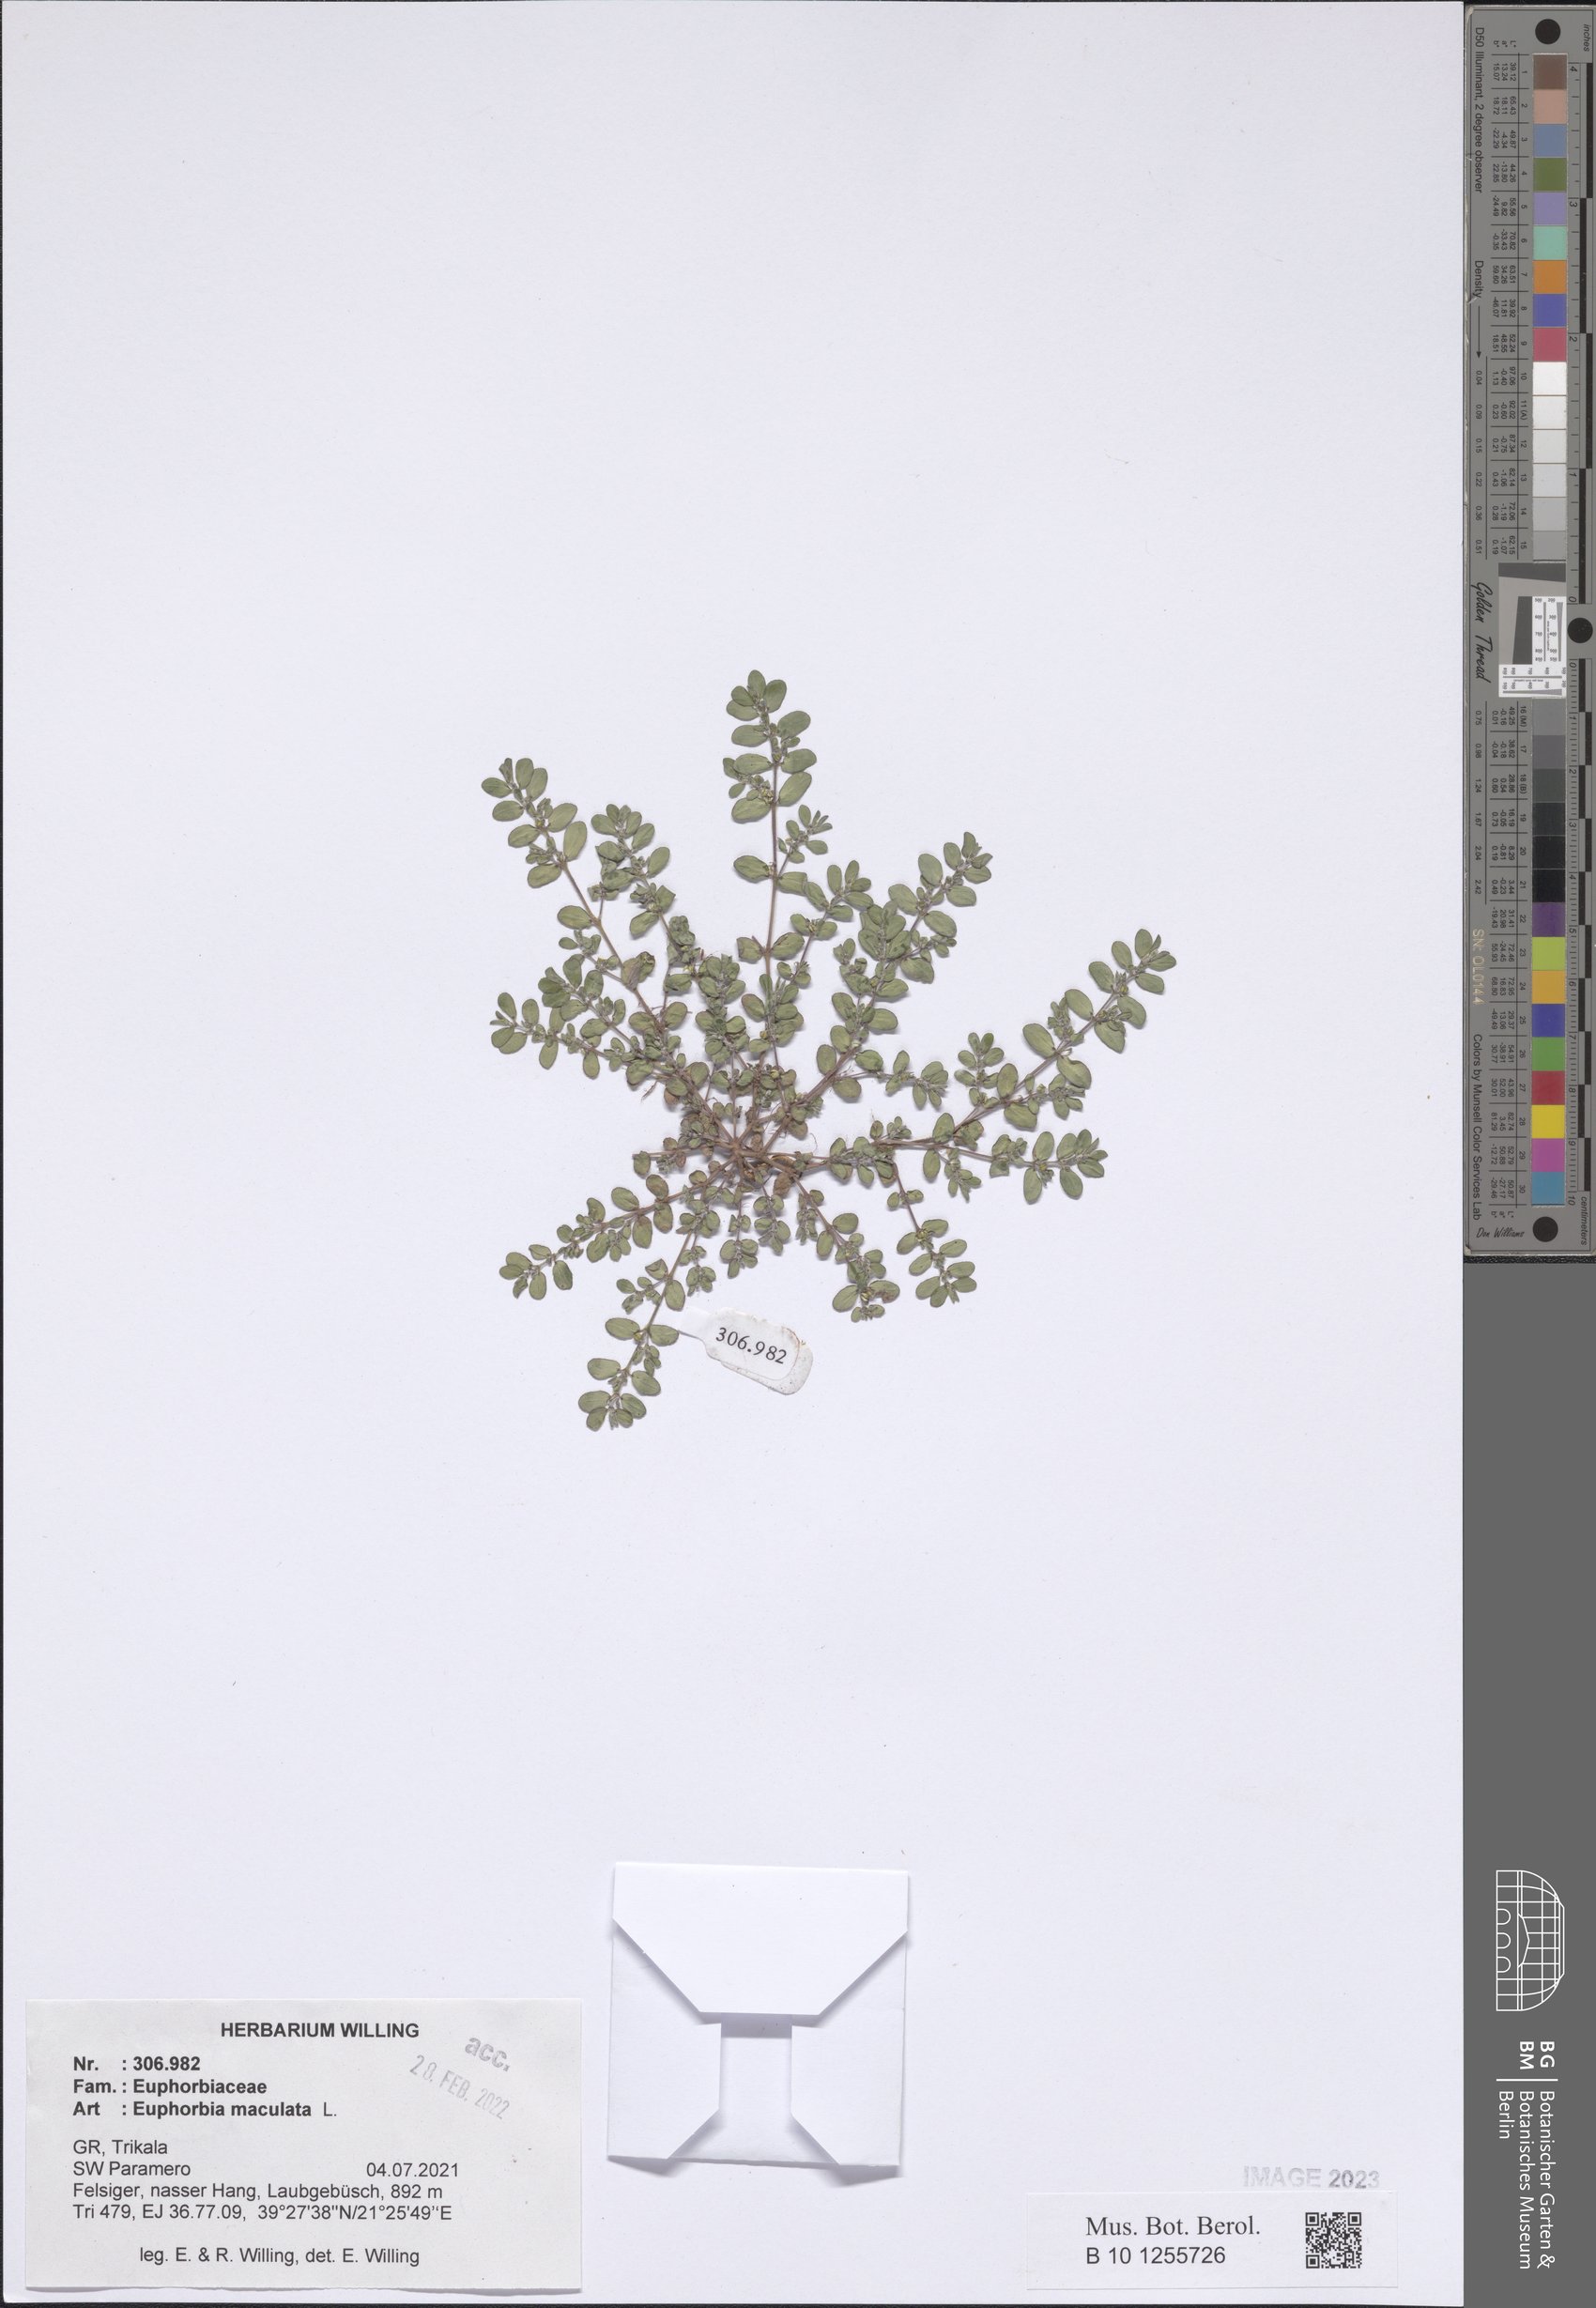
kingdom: Plantae
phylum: Tracheophyta
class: Magnoliopsida
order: Malpighiales
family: Euphorbiaceae
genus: Euphorbia
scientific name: Euphorbia maculata
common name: Spotted spurge
